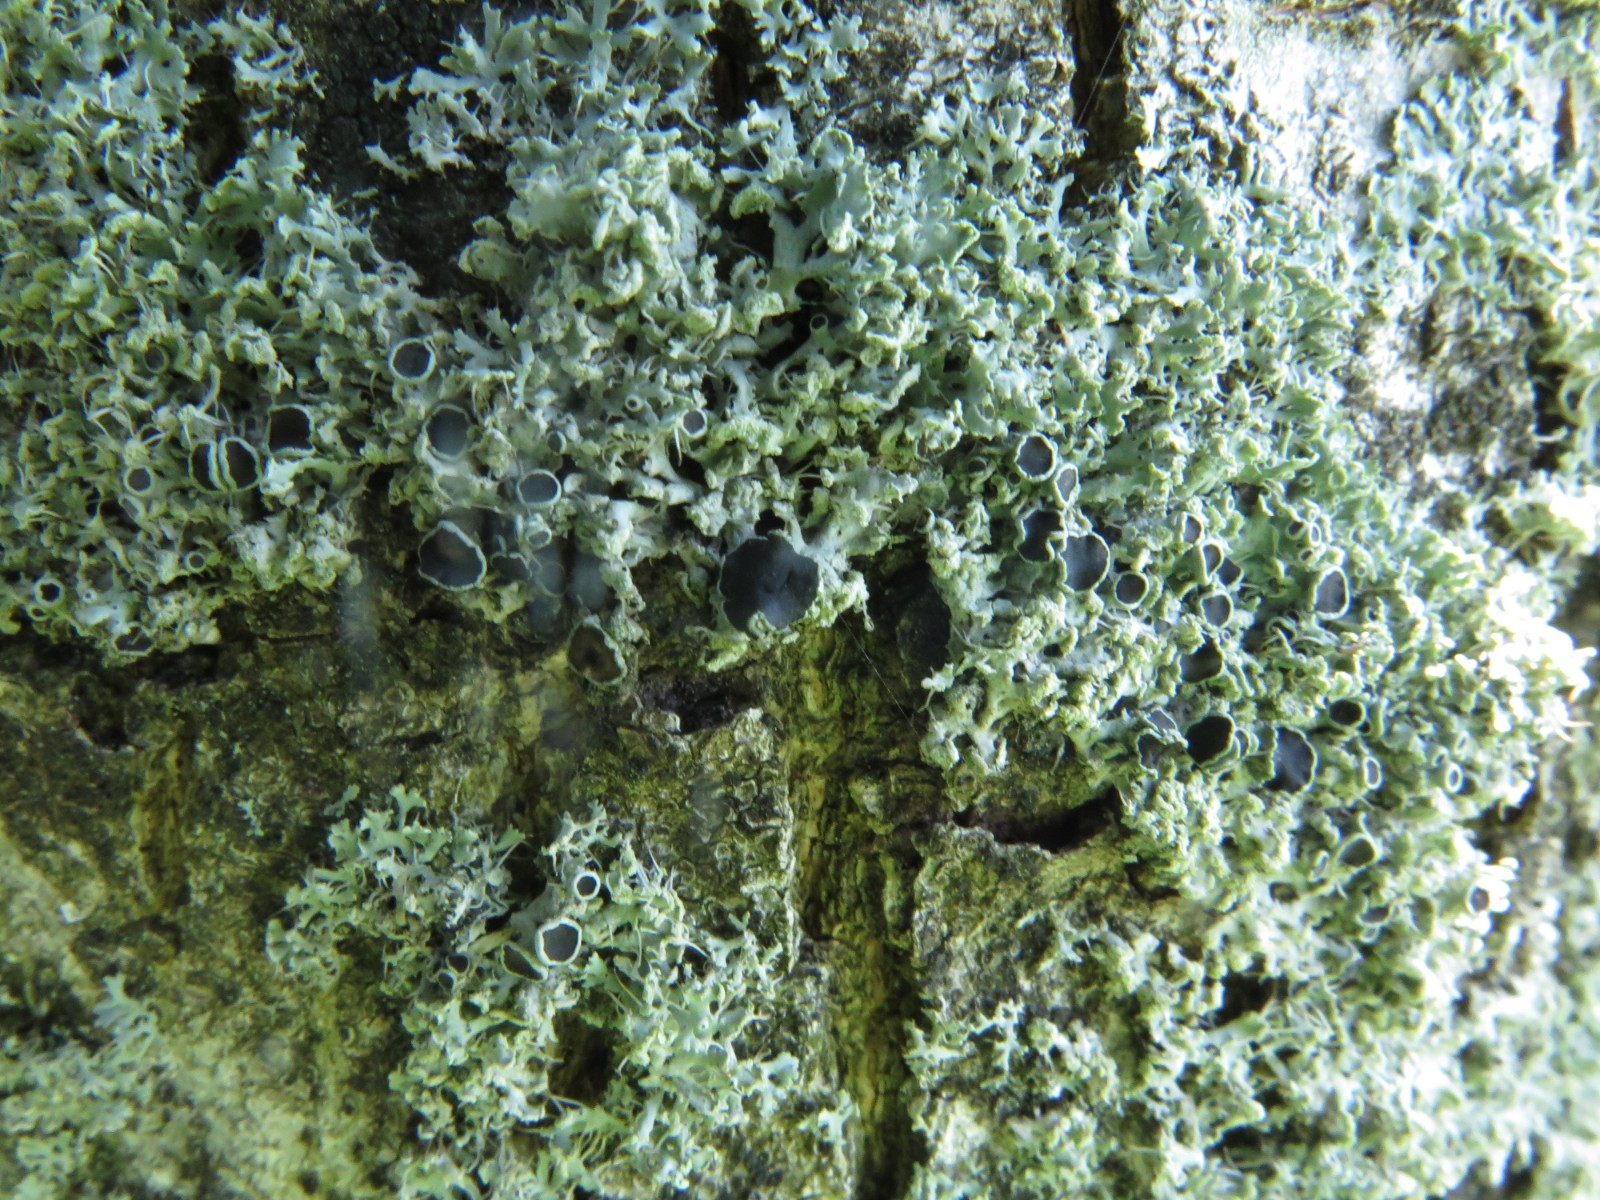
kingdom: Fungi
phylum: Ascomycota
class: Lecanoromycetes
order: Caliciales
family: Physciaceae
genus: Physcia
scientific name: Physcia tenella
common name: spæd rosetlav
